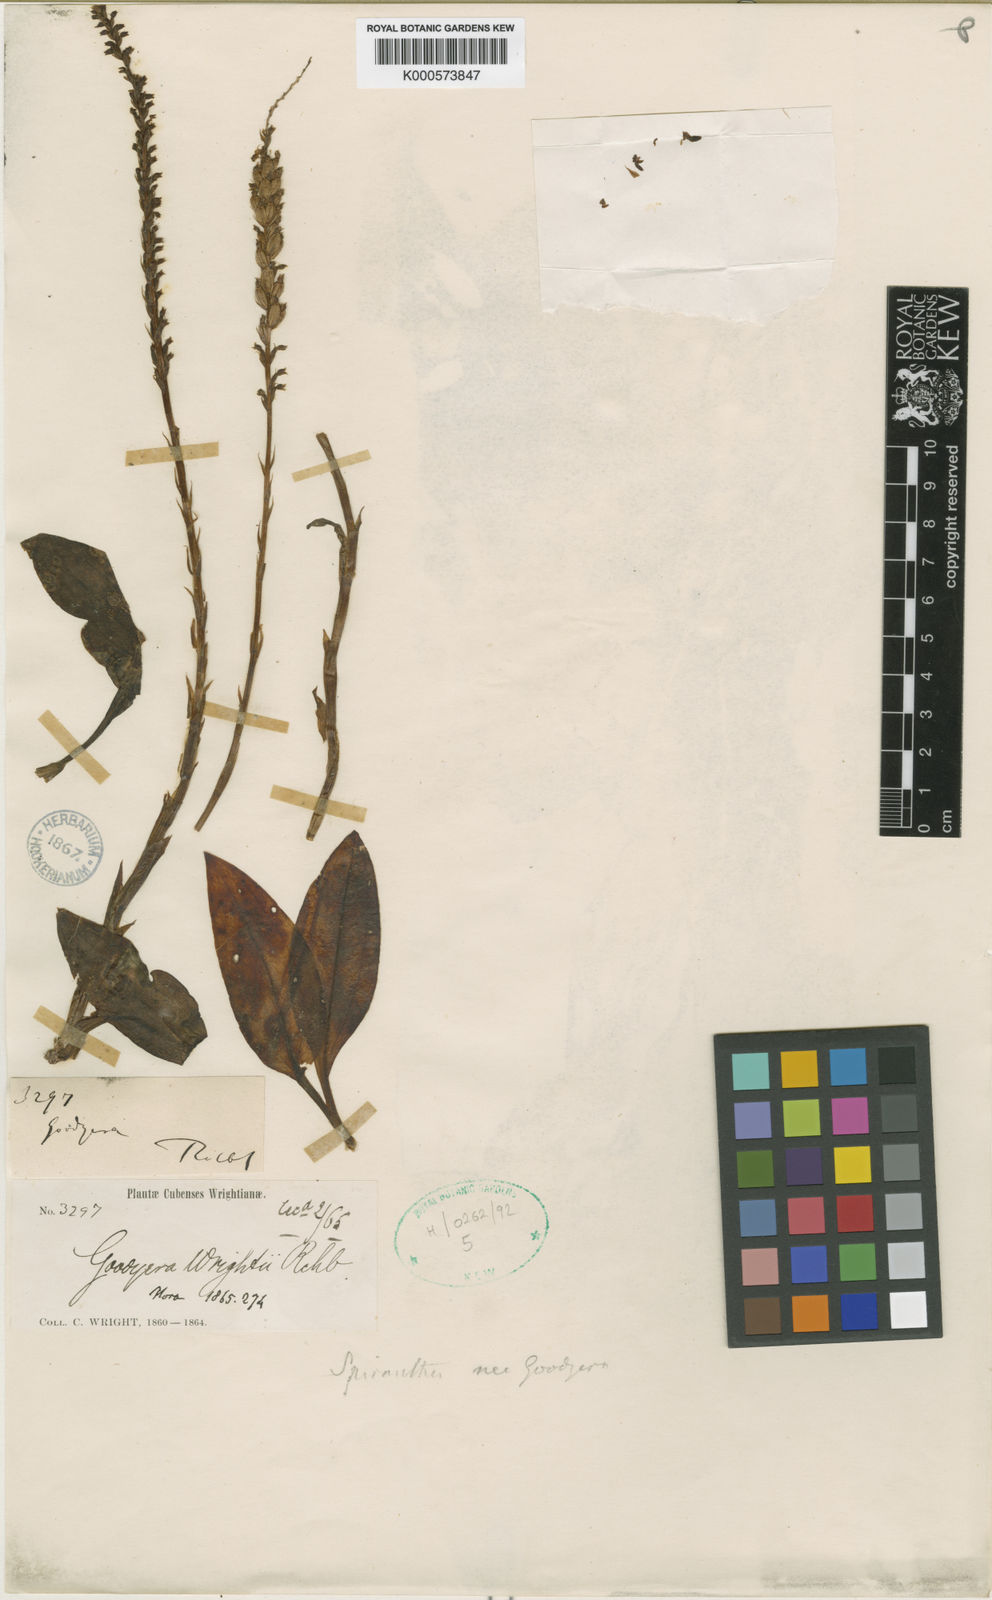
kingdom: Plantae
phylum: Tracheophyta
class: Liliopsida
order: Asparagales
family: Orchidaceae
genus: Pseudogoodyera
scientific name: Pseudogoodyera wrightii
